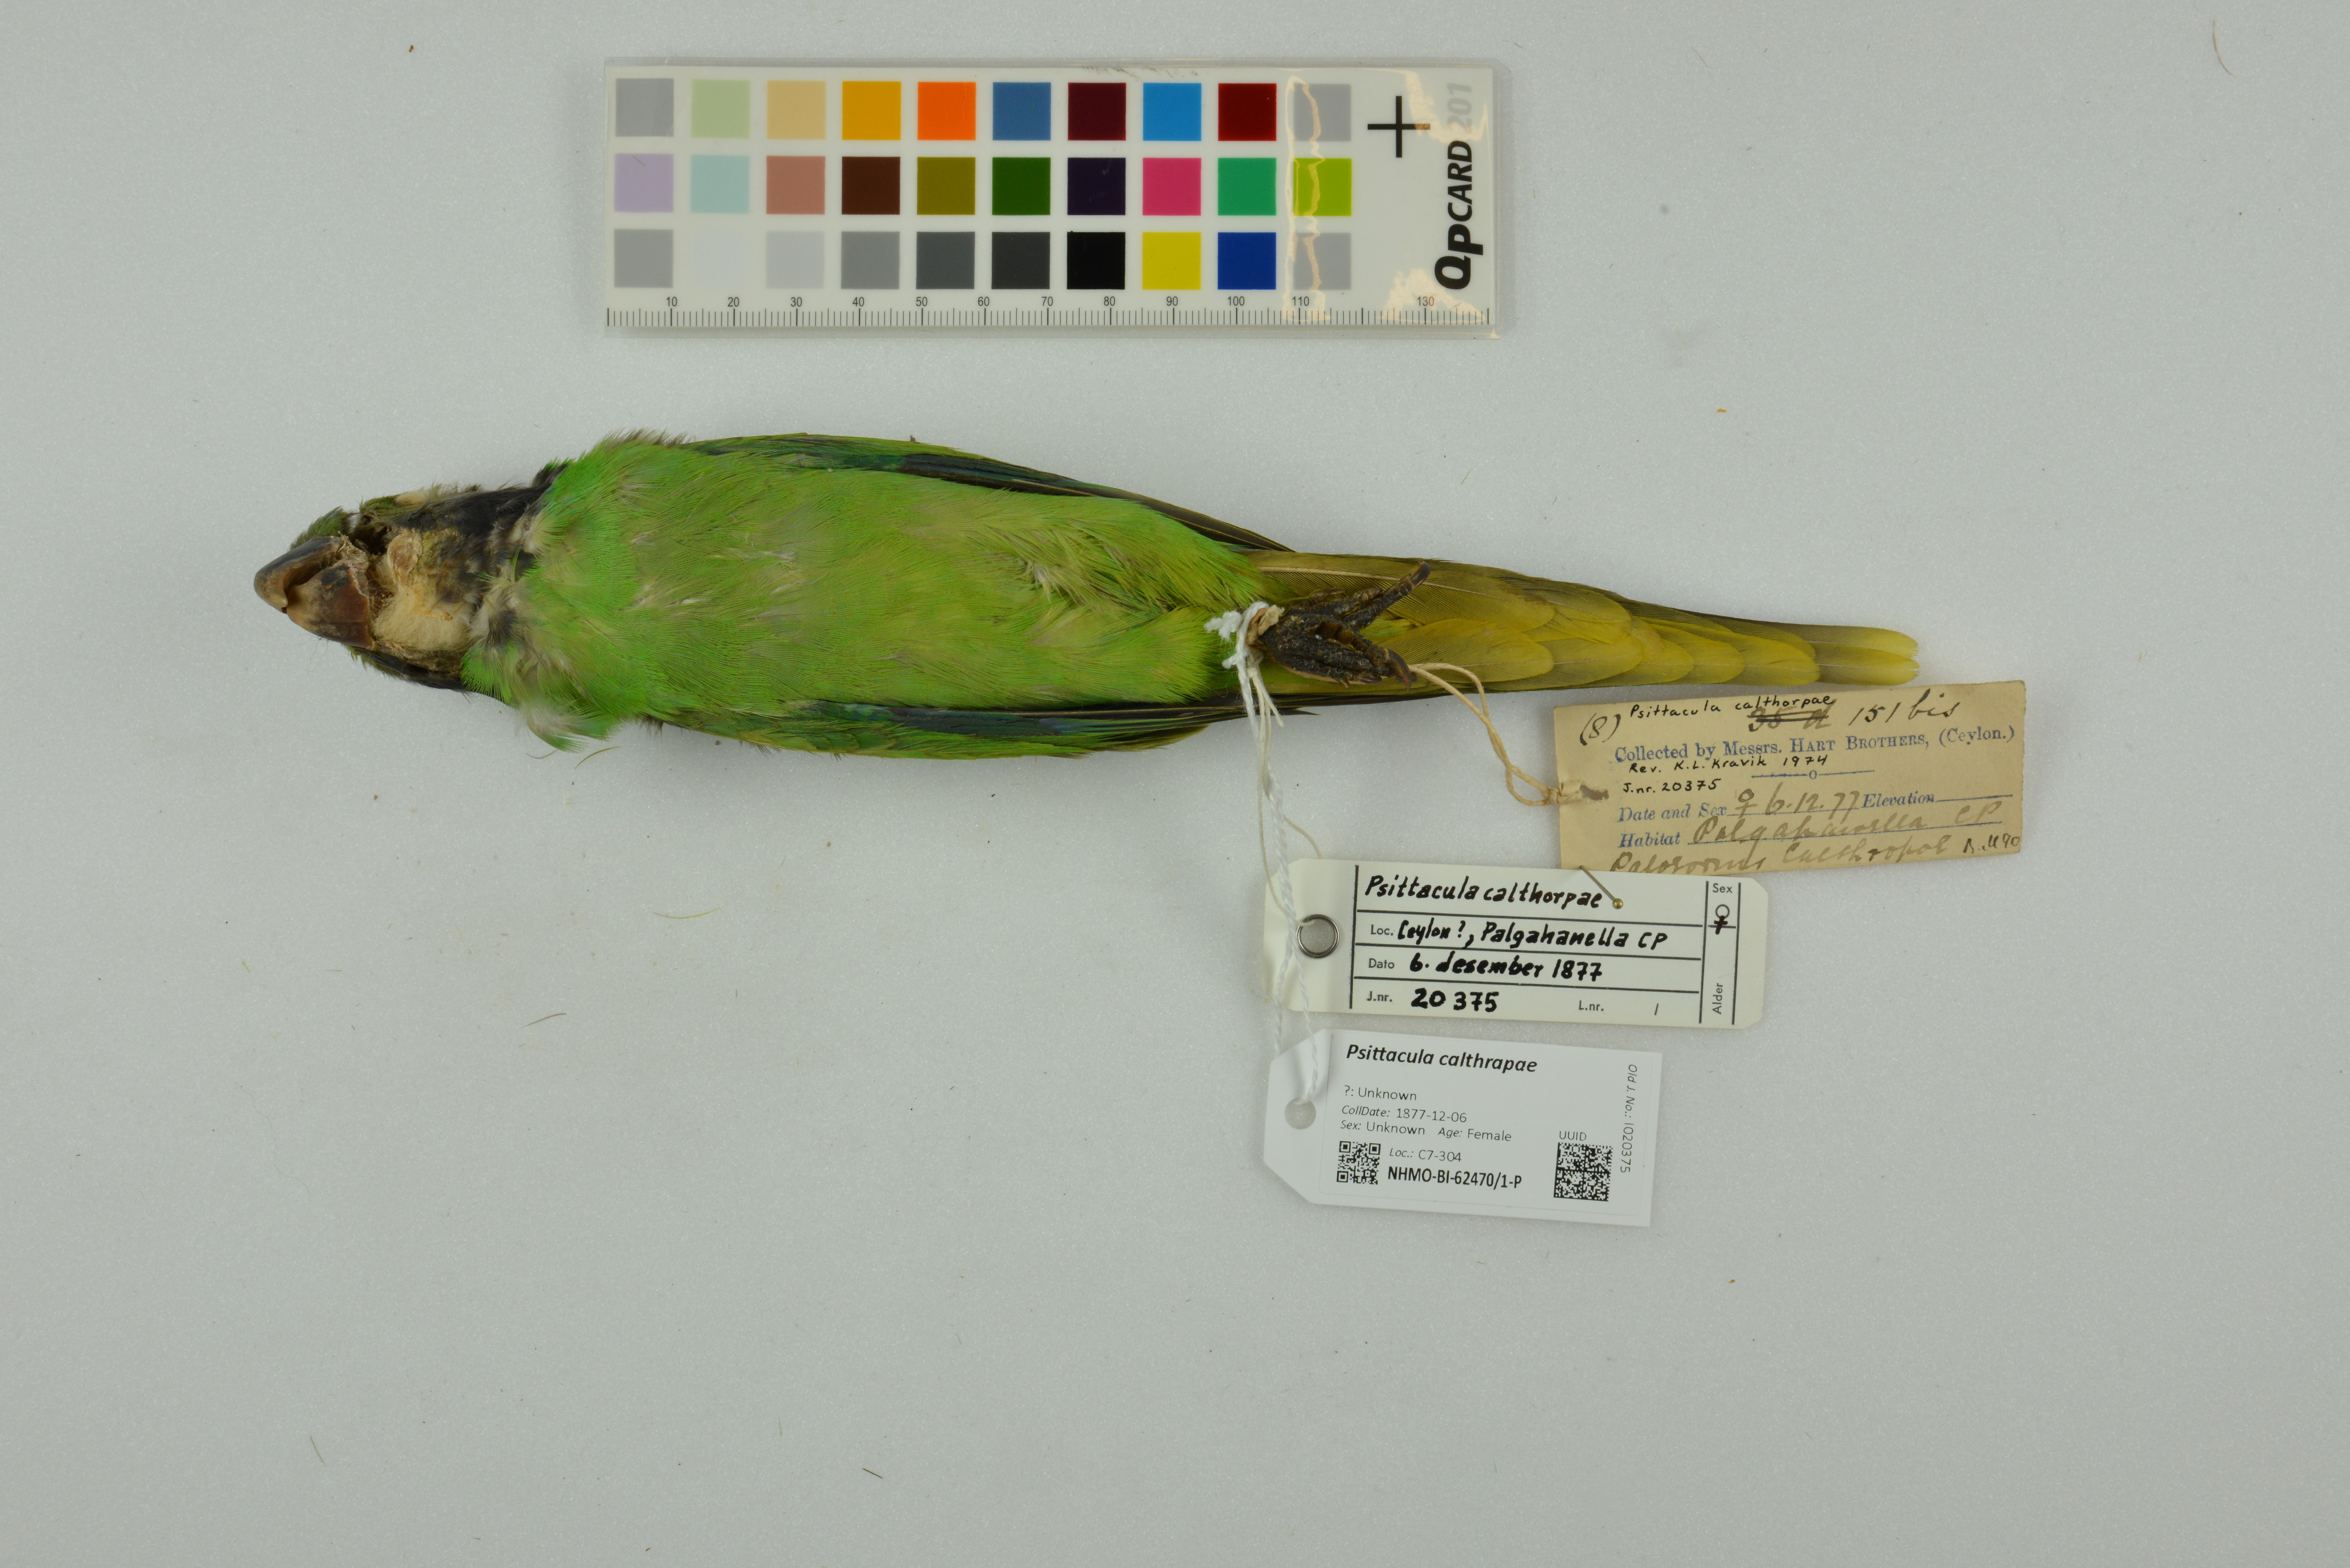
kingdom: Animalia
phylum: Chordata
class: Aves
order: Psittaciformes
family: Psittacidae
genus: Psittacula
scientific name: Psittacula calthrapae
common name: Layard's parakeet
